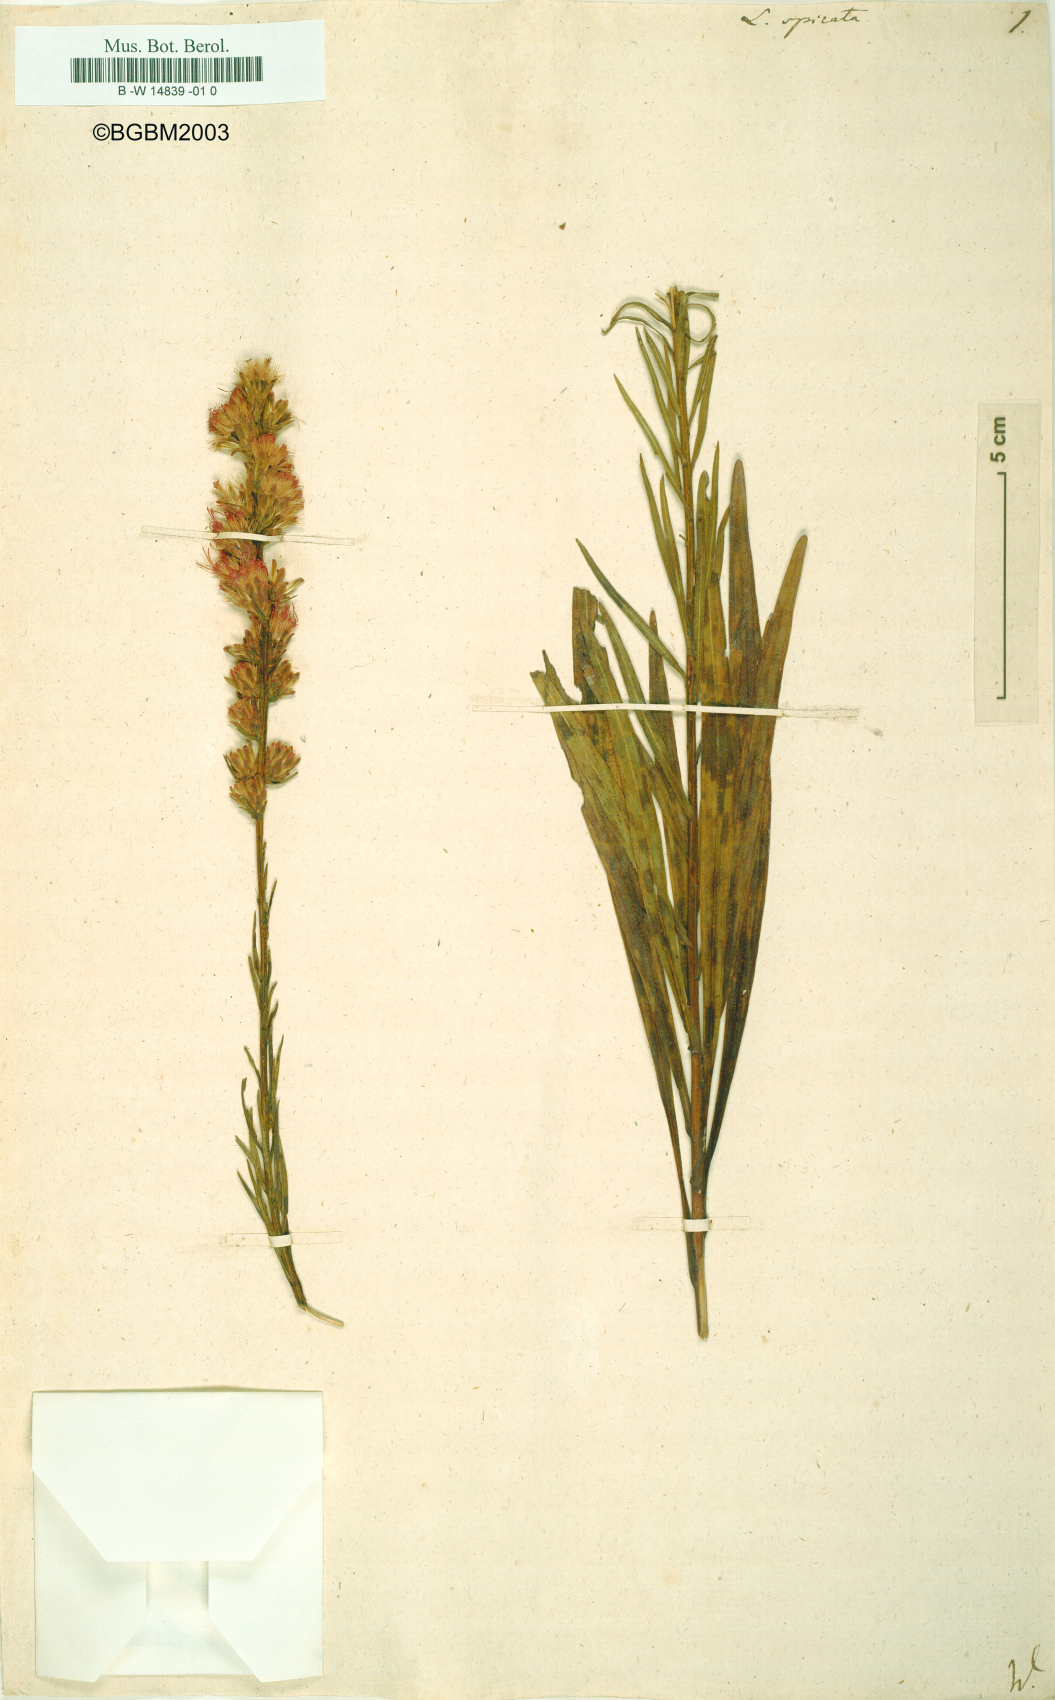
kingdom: Plantae
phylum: Tracheophyta
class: Magnoliopsida
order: Asterales
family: Asteraceae
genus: Liatris
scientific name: Liatris spicata
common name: Florist gayfeather
